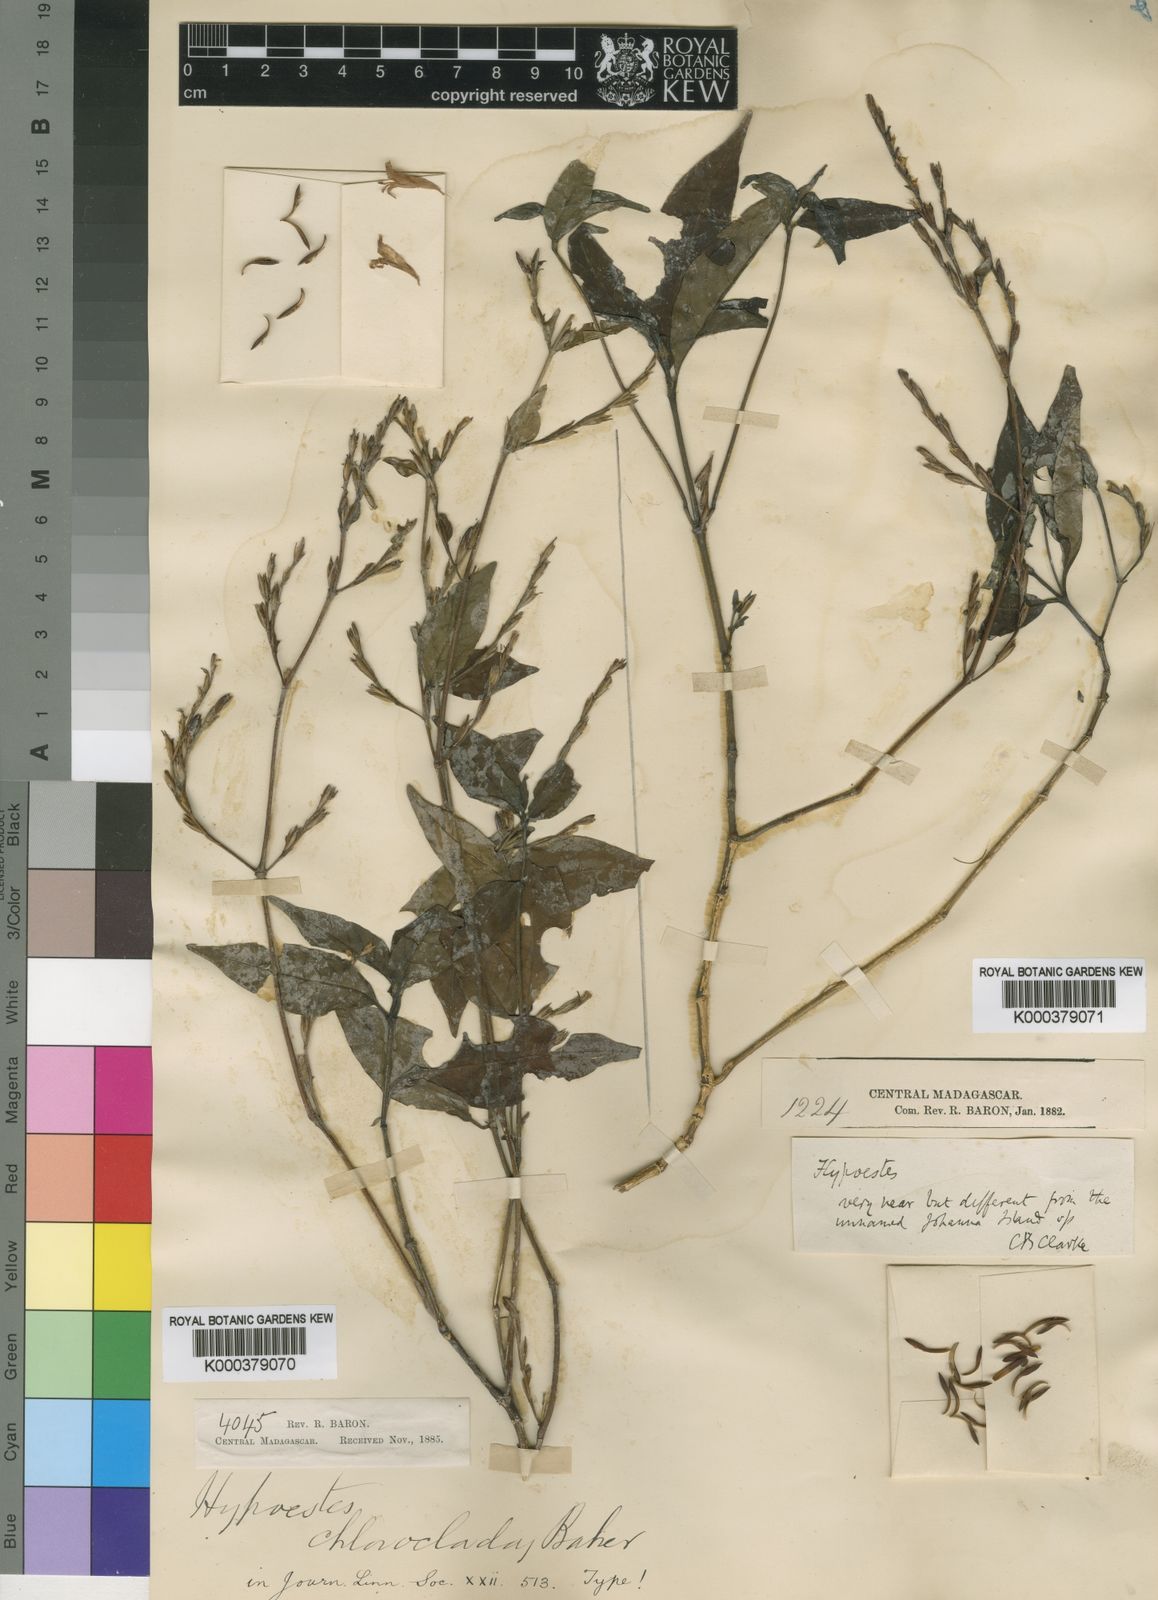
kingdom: Plantae
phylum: Tracheophyta
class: Magnoliopsida
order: Lamiales
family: Acanthaceae
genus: Hypoestes
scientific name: Hypoestes chloroclada
